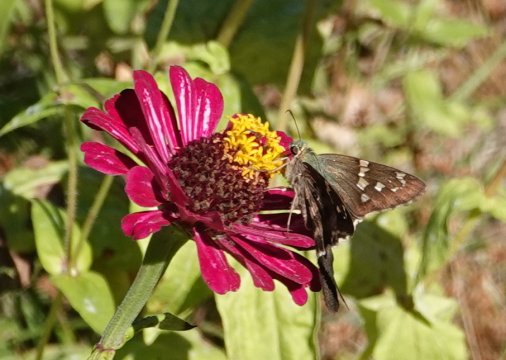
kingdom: Animalia
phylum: Arthropoda
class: Insecta
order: Lepidoptera
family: Hesperiidae
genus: Urbanus
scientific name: Urbanus proteus
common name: Long-tailed Skipper
